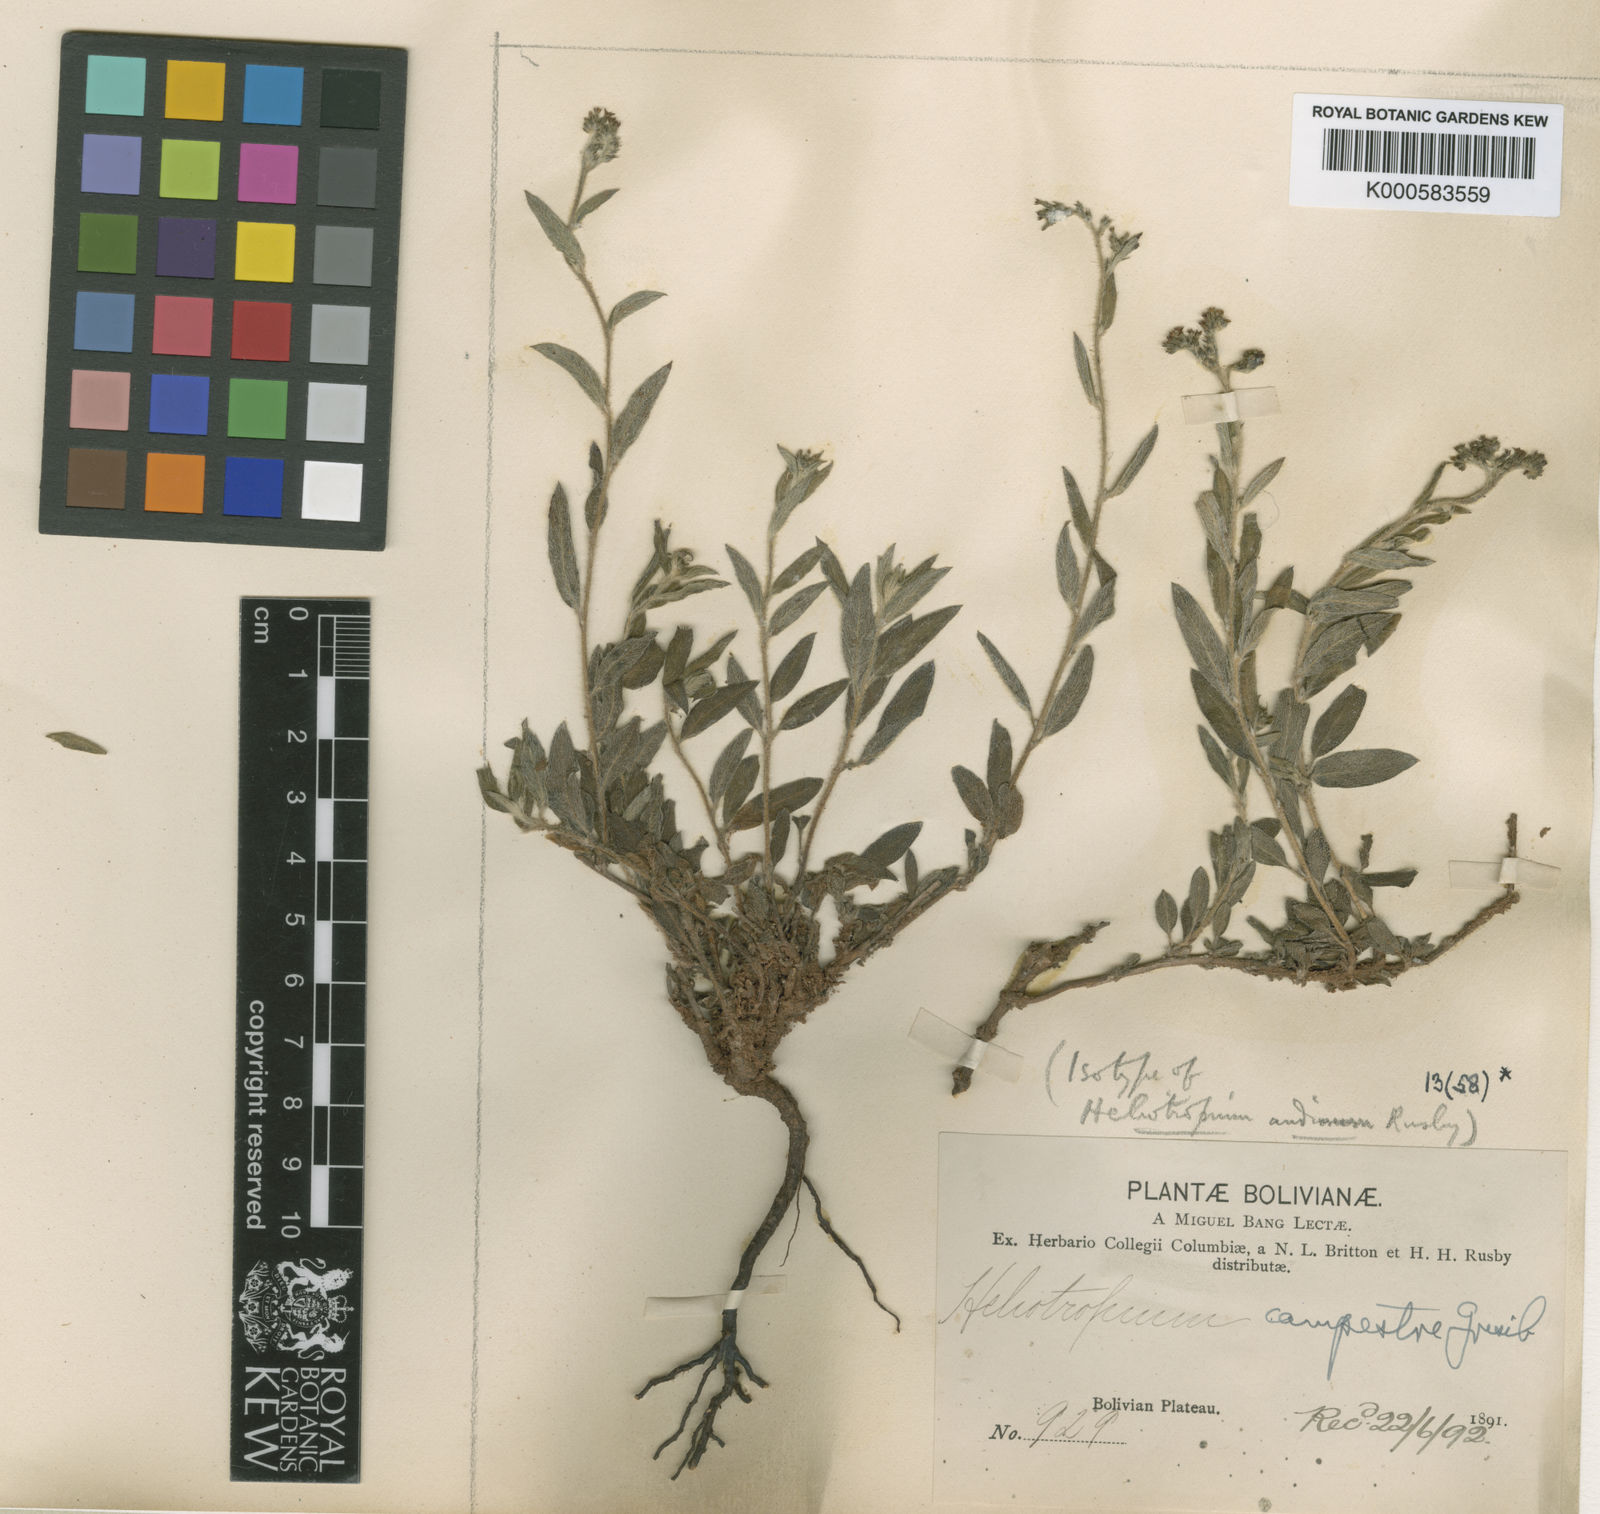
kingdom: Plantae
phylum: Tracheophyta
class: Magnoliopsida
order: Boraginales
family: Heliotropiaceae
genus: Euploca
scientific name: Euploca campestris
